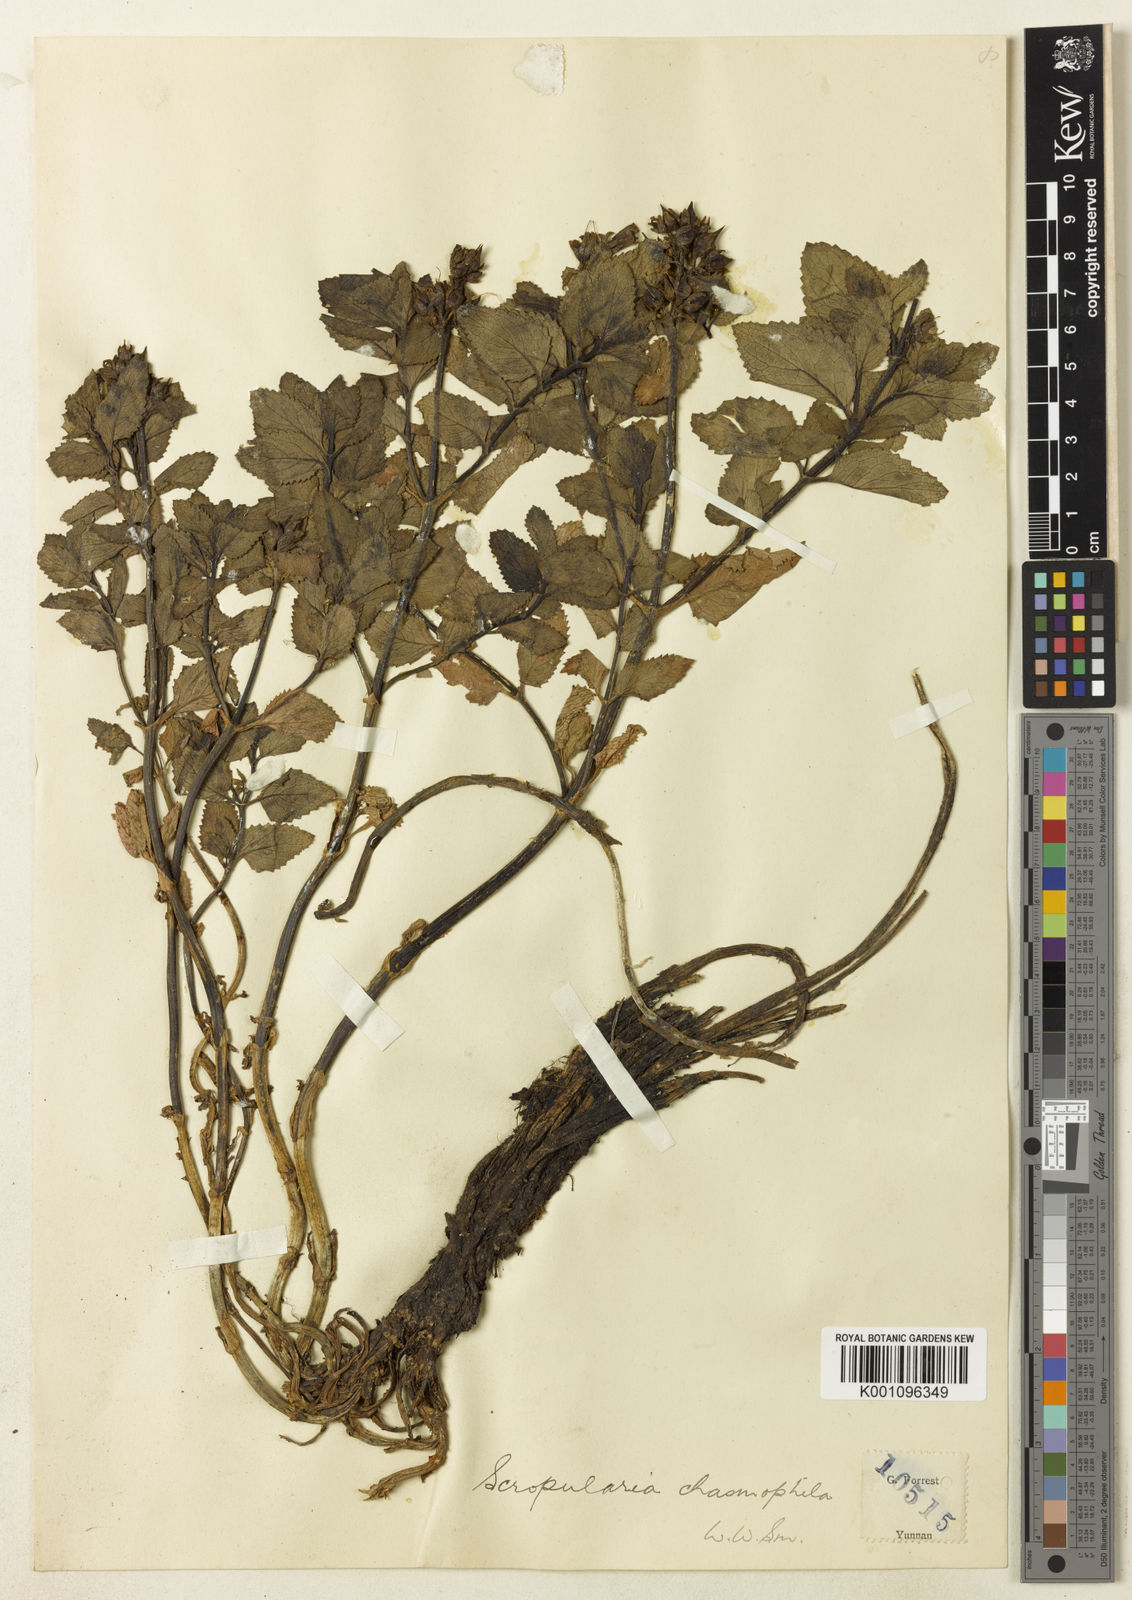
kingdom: Plantae
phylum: Tracheophyta
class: Magnoliopsida
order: Lamiales
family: Scrophulariaceae
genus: Scrophularia
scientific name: Scrophularia chasmophila
